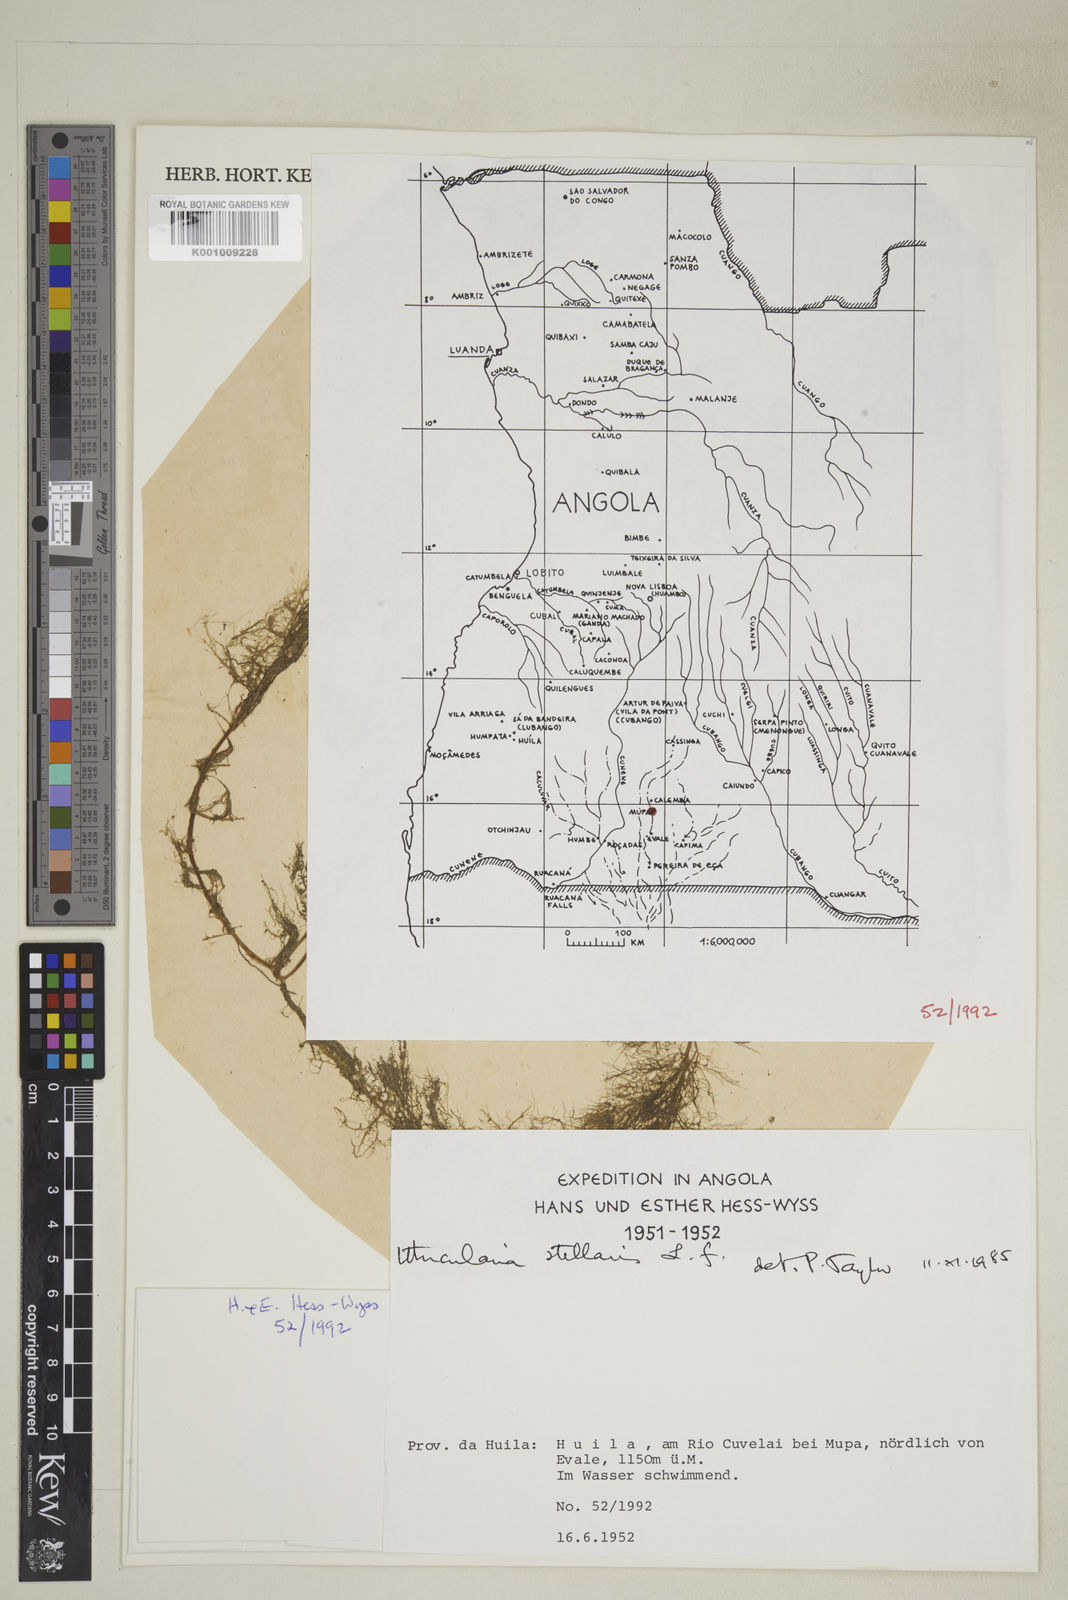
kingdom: Plantae
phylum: Tracheophyta
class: Magnoliopsida
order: Lamiales
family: Lentibulariaceae
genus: Utricularia
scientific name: Utricularia stellaris
